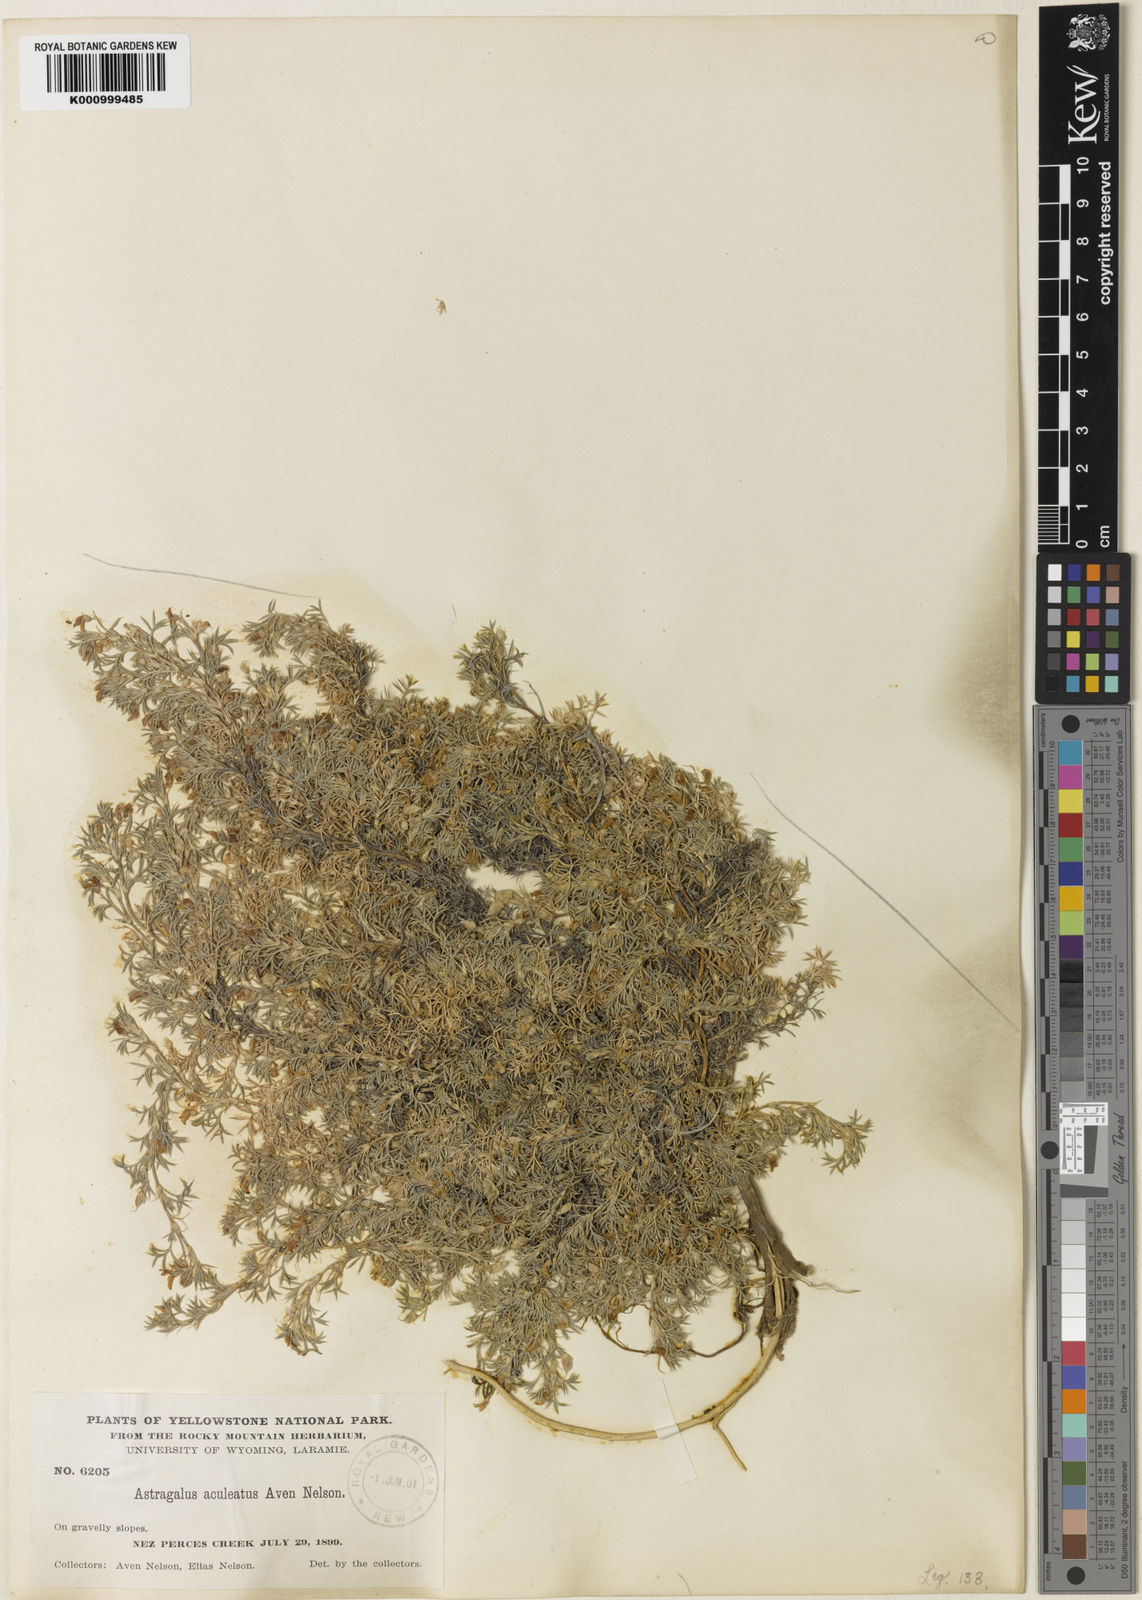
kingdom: Plantae
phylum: Tracheophyta
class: Magnoliopsida
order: Fabales
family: Fabaceae
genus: Astragalus
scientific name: Astragalus kentrophyta
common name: Prickly milk-vetch
